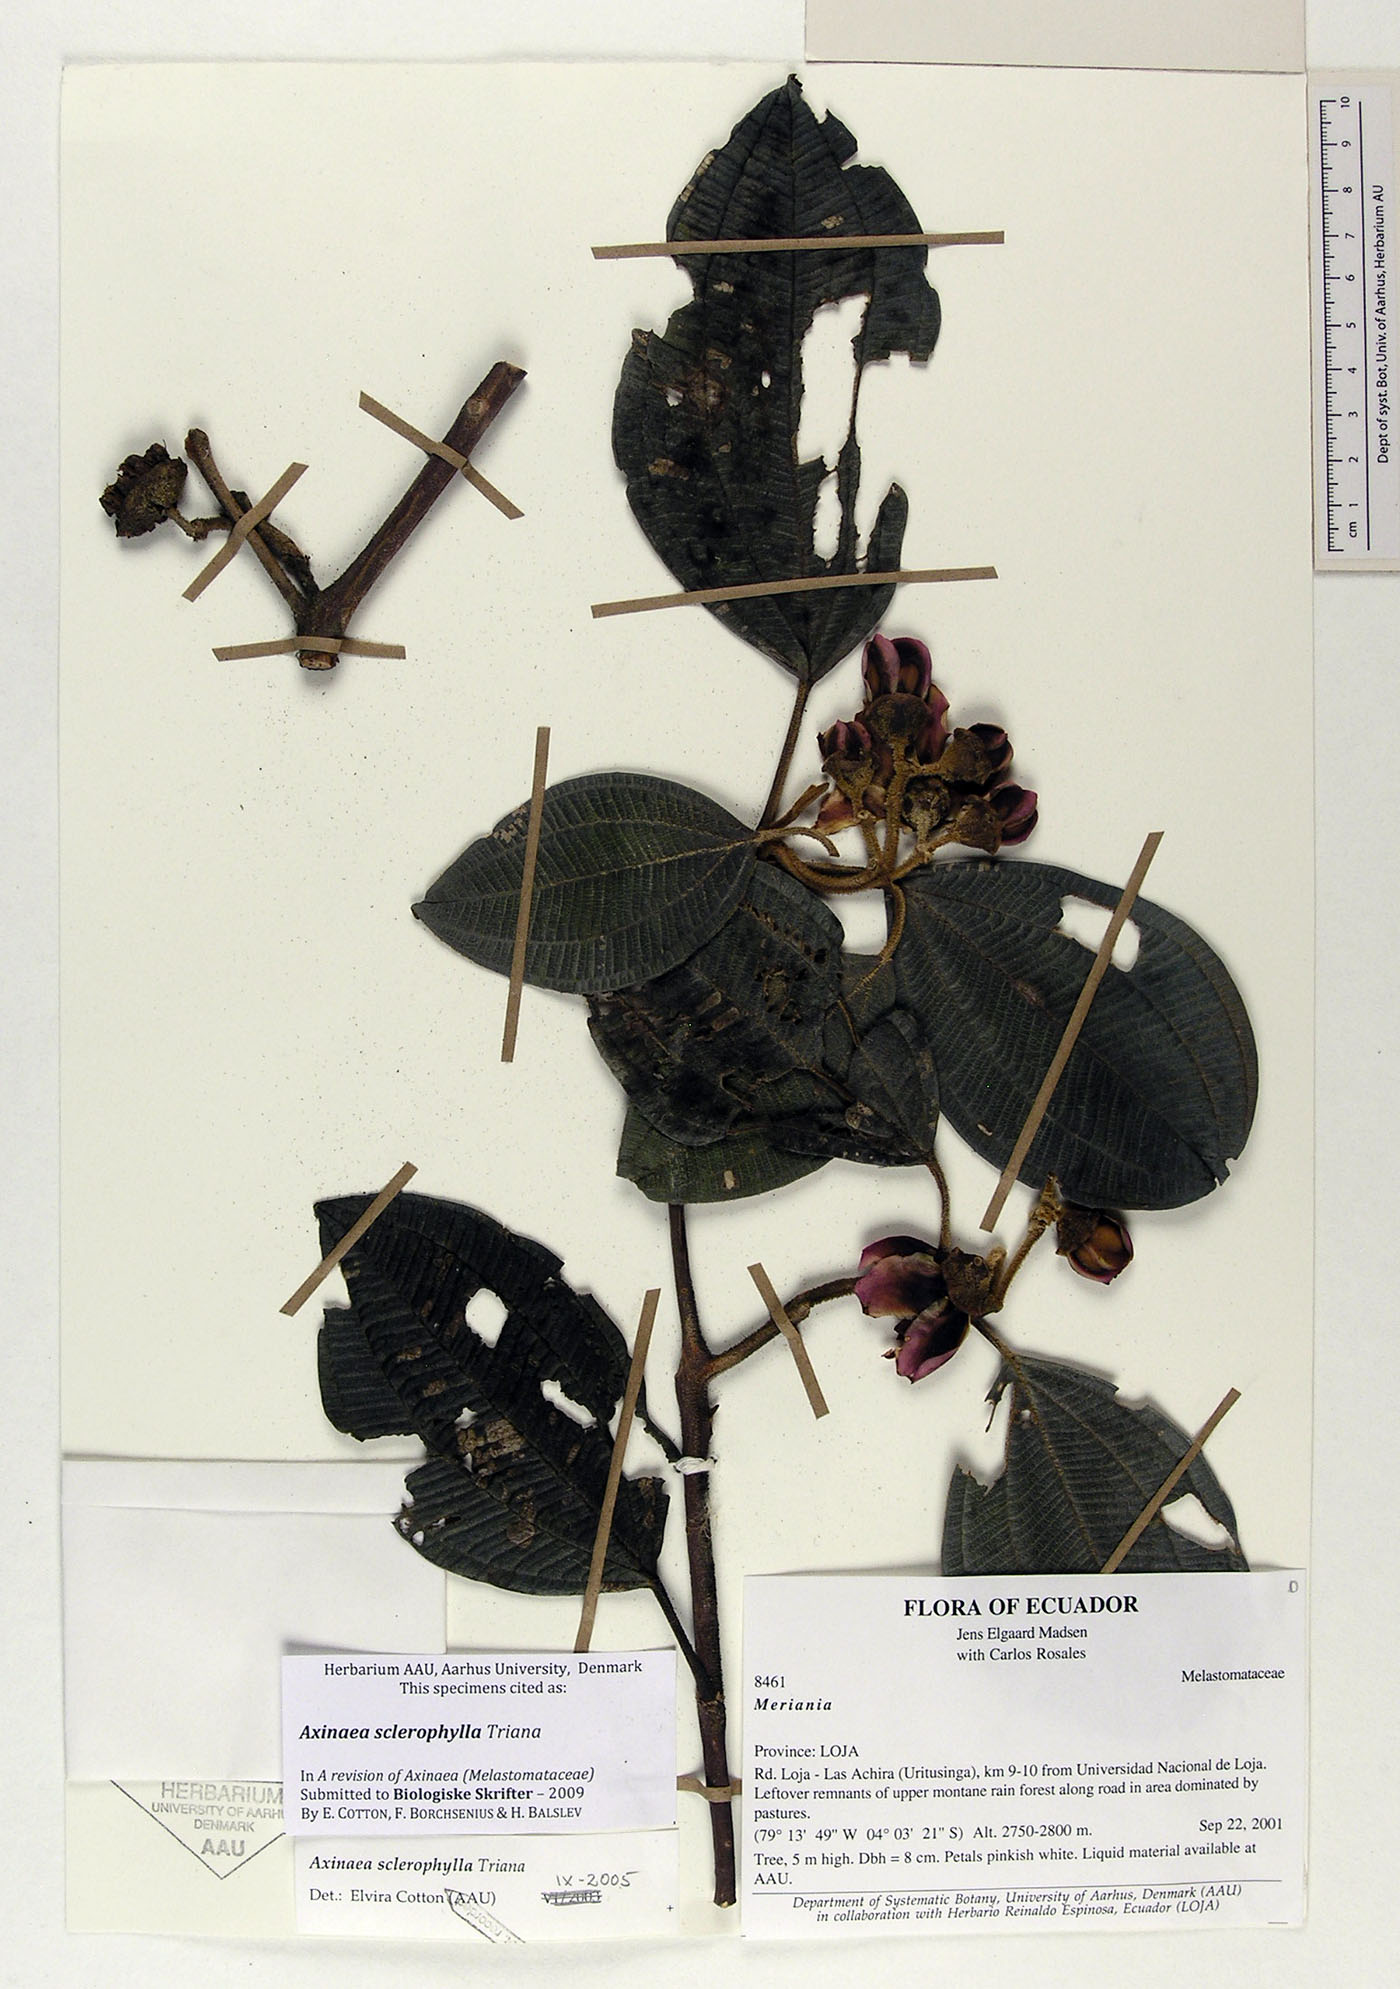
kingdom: Plantae
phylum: Tracheophyta
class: Magnoliopsida
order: Myrtales
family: Melastomataceae
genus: Axinaea
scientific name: Axinaea sclerophylla
